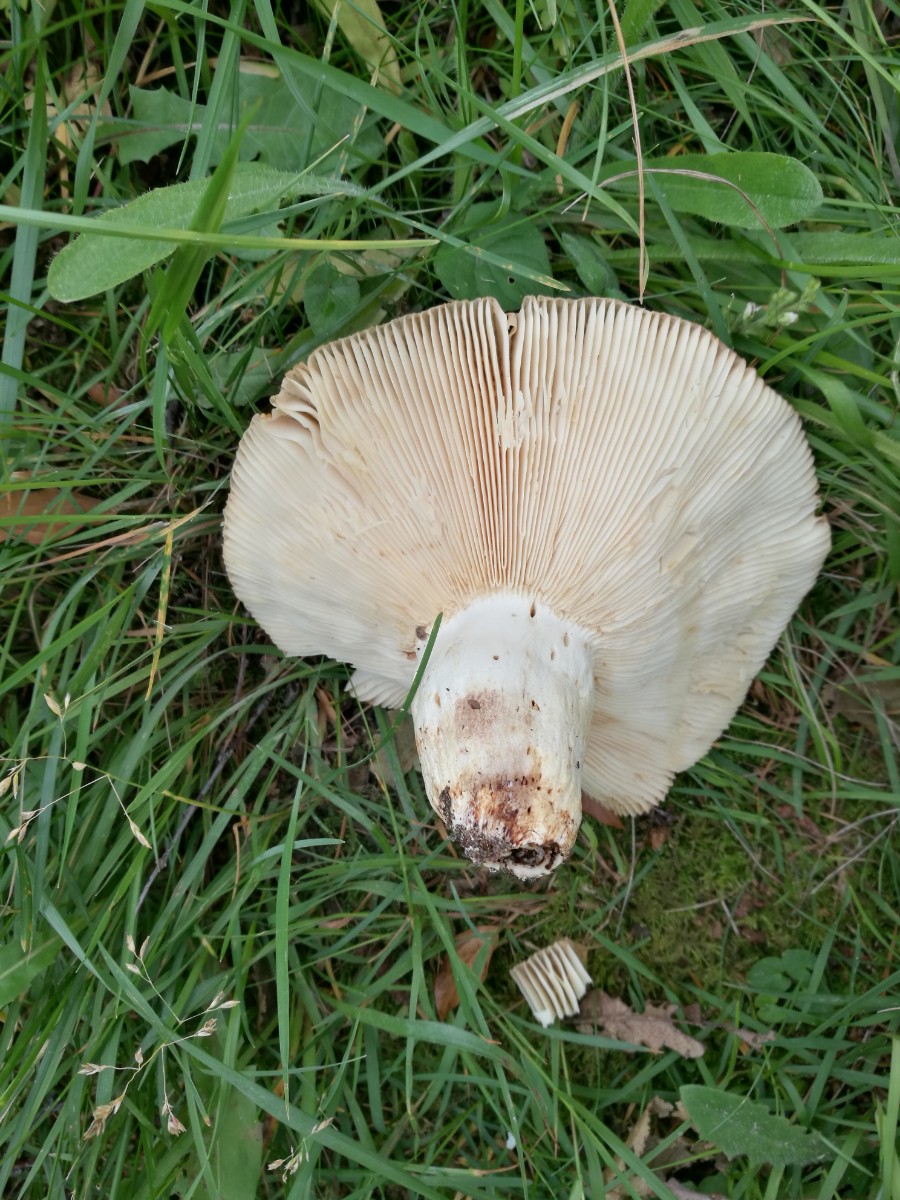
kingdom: Fungi
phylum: Basidiomycota
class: Agaricomycetes
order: Russulales
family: Russulaceae
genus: Russula
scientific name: Russula
